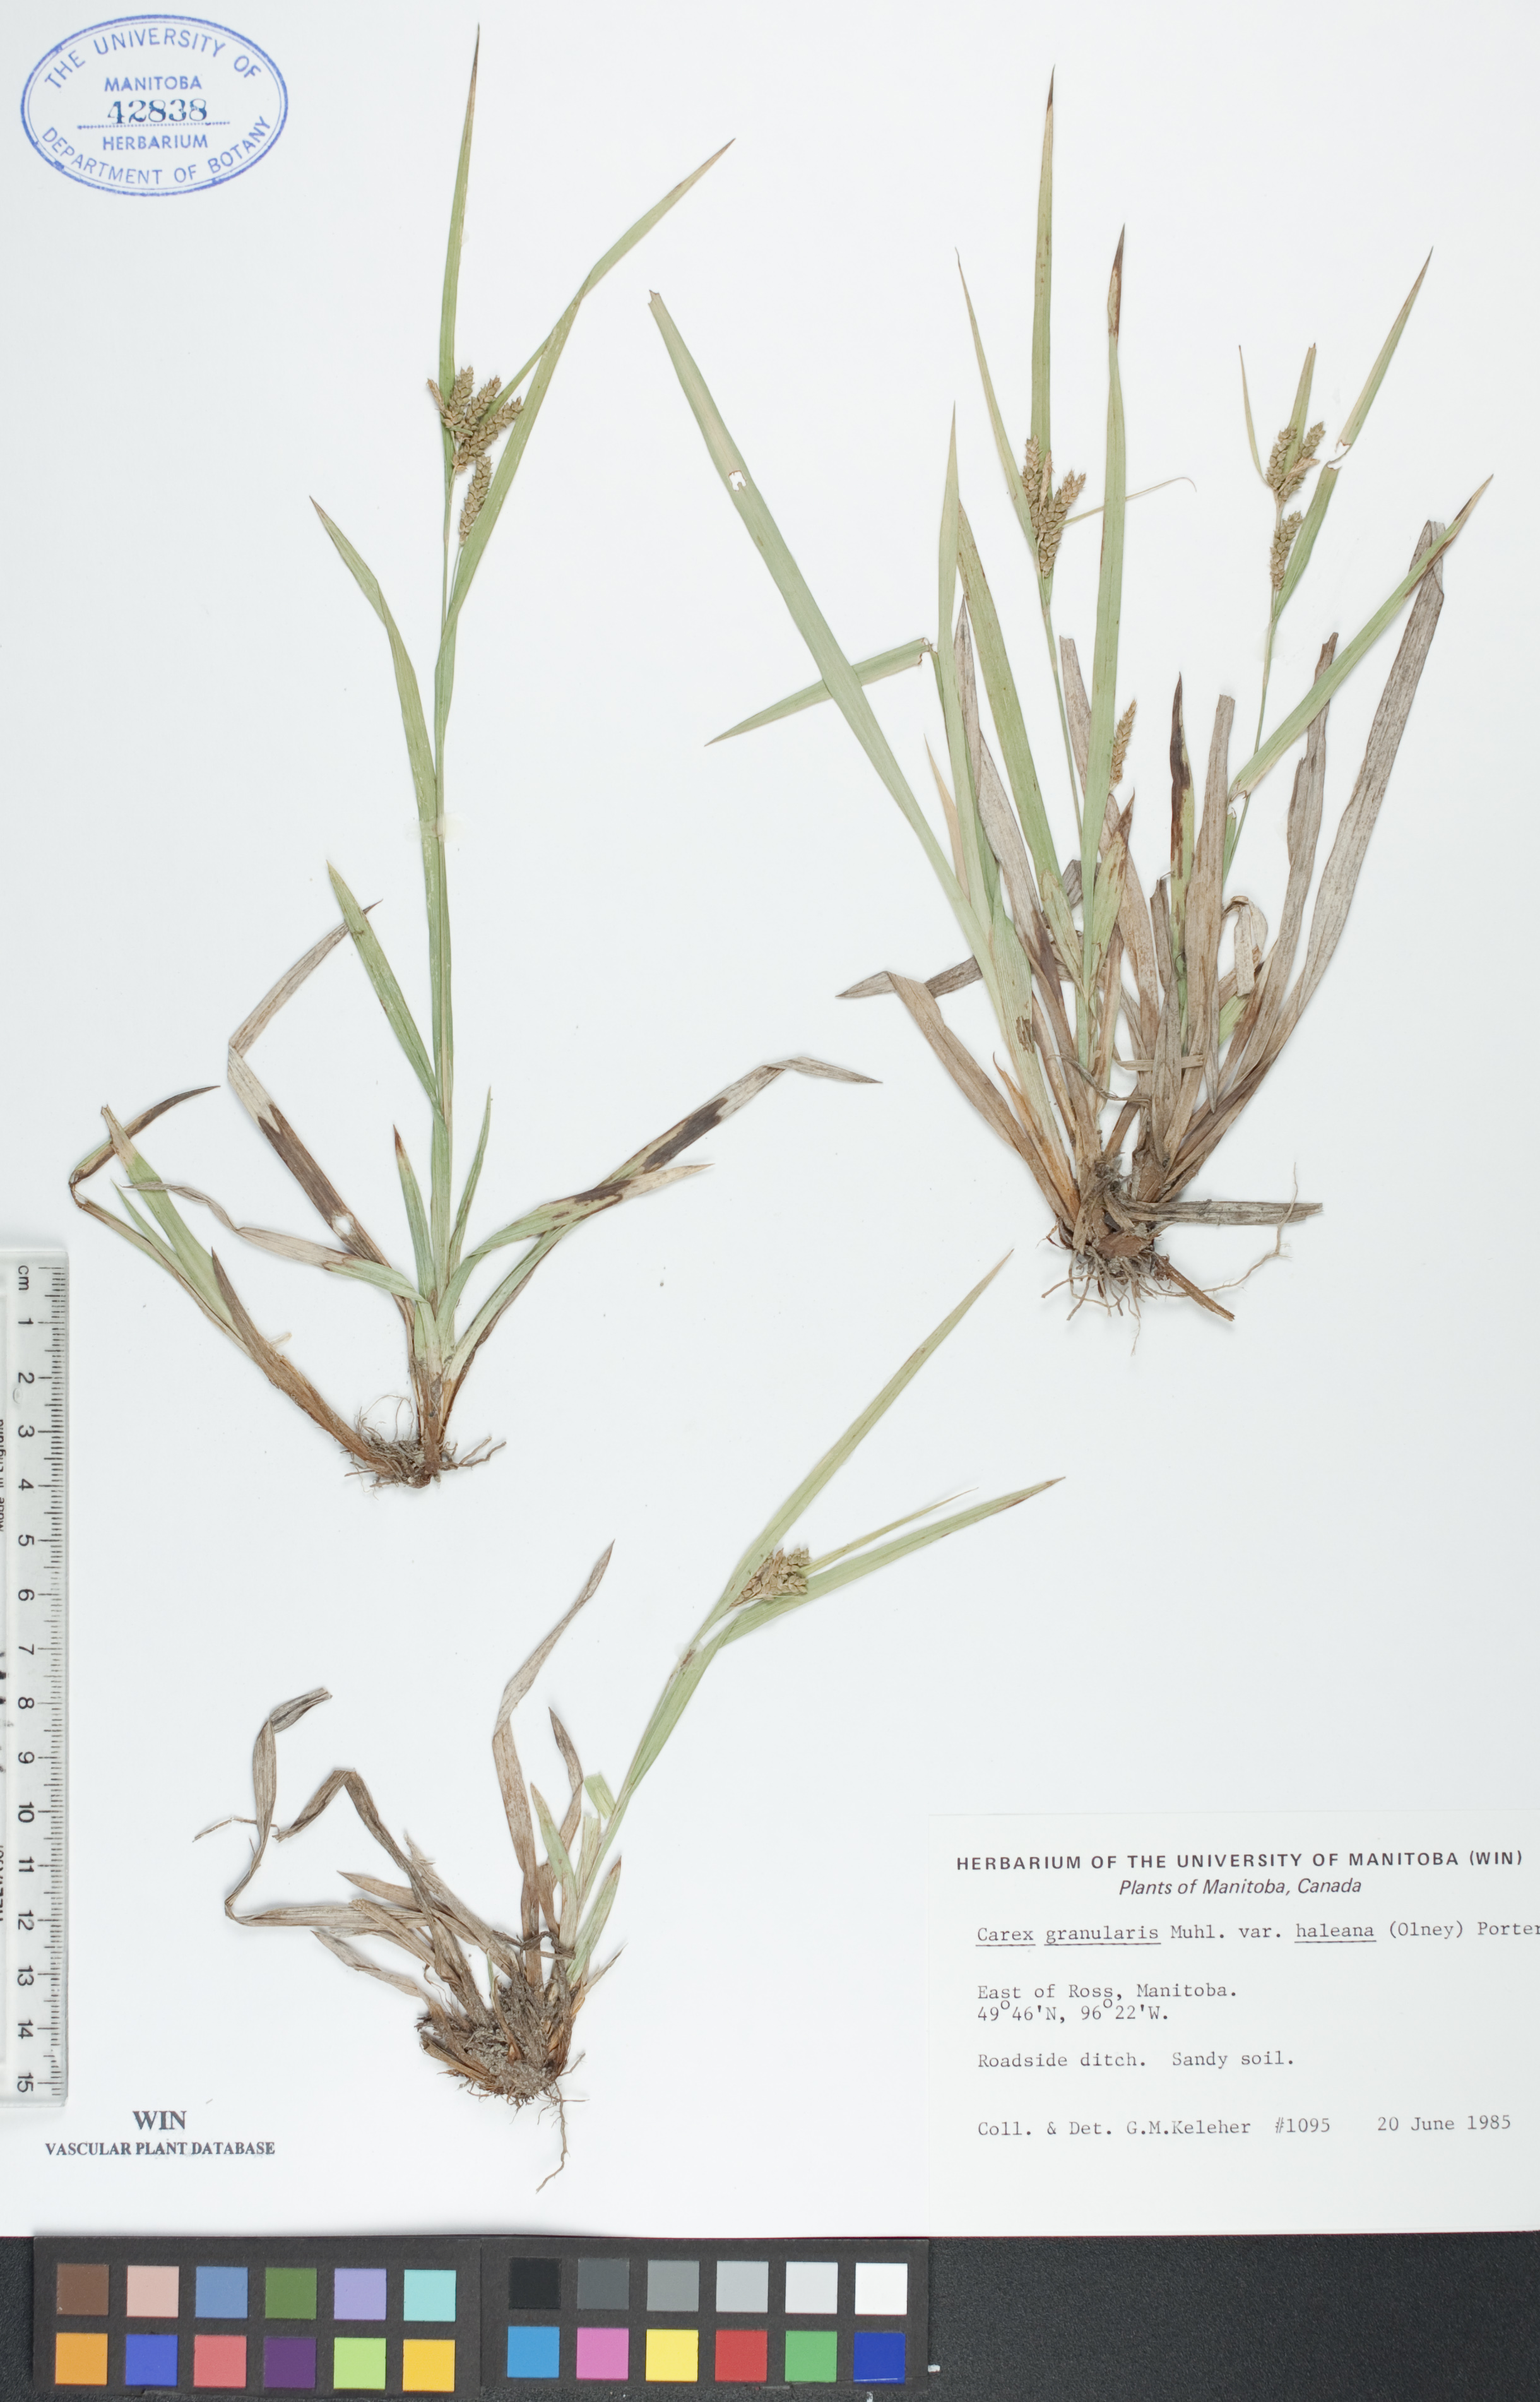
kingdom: Plantae
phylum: Tracheophyta
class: Liliopsida
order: Poales
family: Cyperaceae
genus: Carex
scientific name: Carex granularis
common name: Granular sedge
